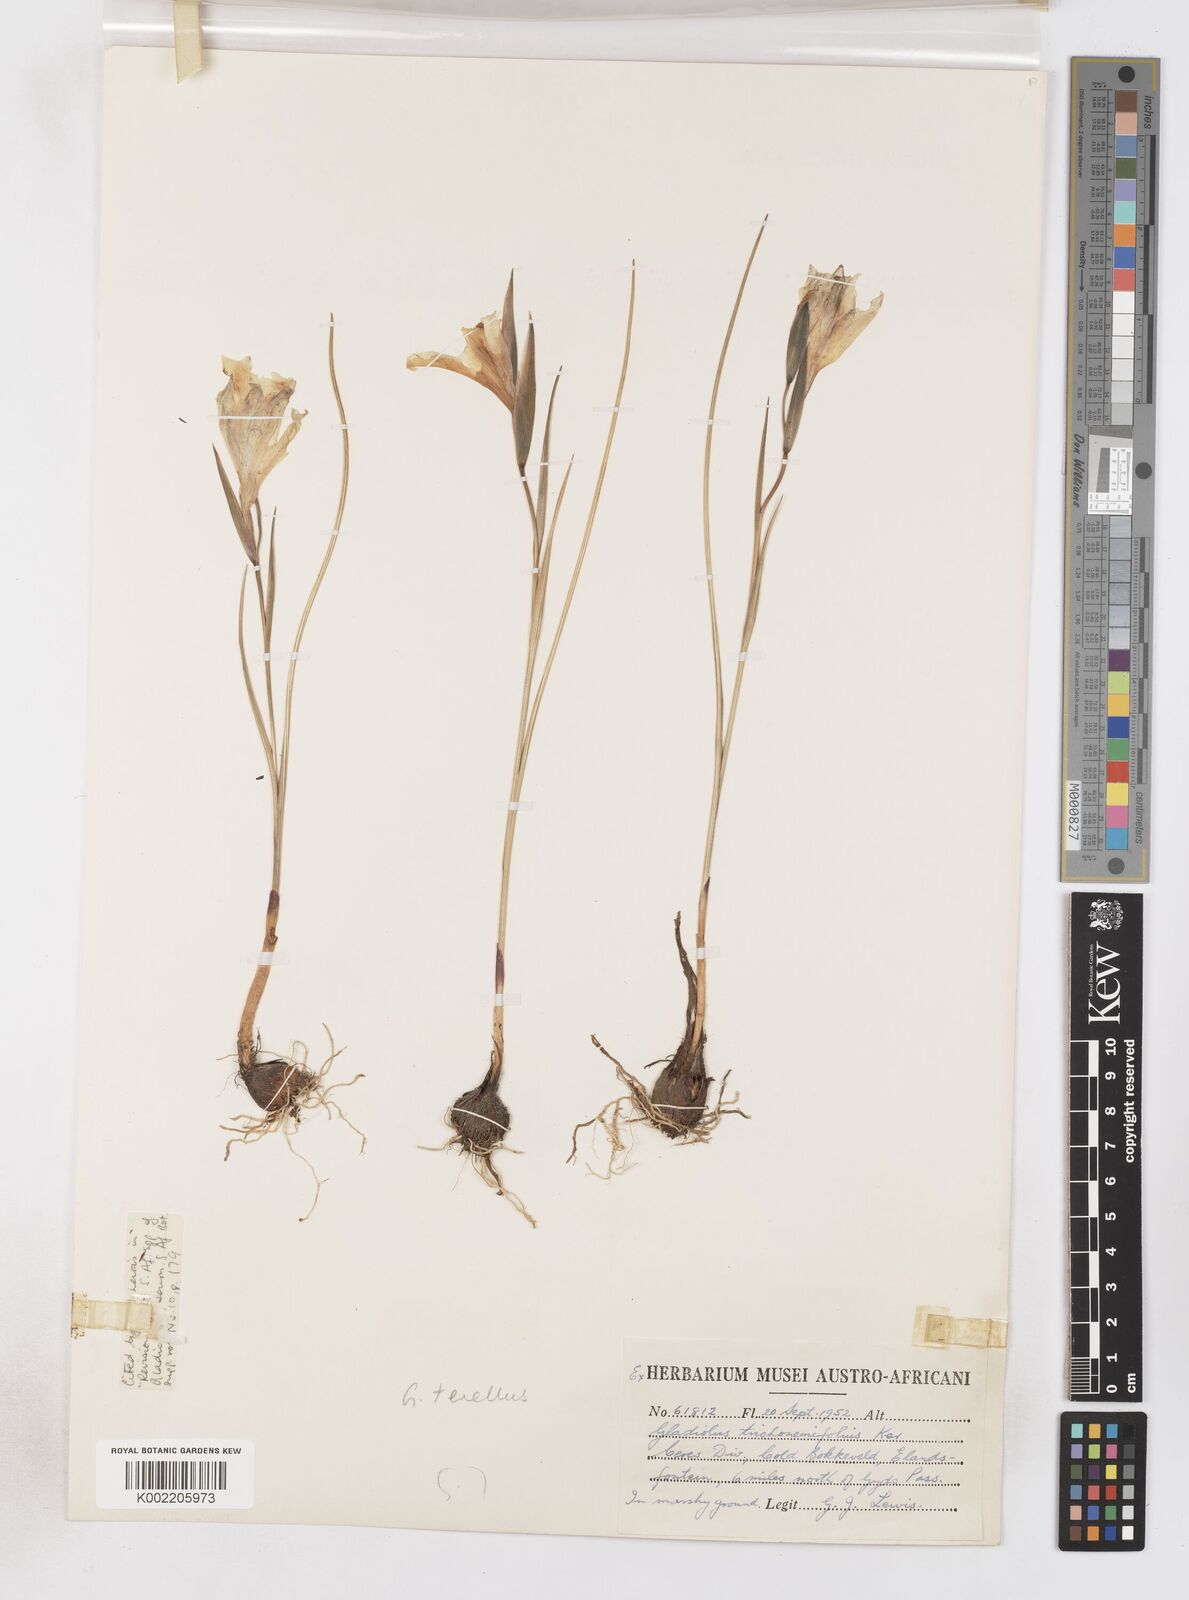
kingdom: Plantae
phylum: Tracheophyta
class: Liliopsida
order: Asparagales
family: Iridaceae
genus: Gladiolus
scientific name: Gladiolus carinatus
